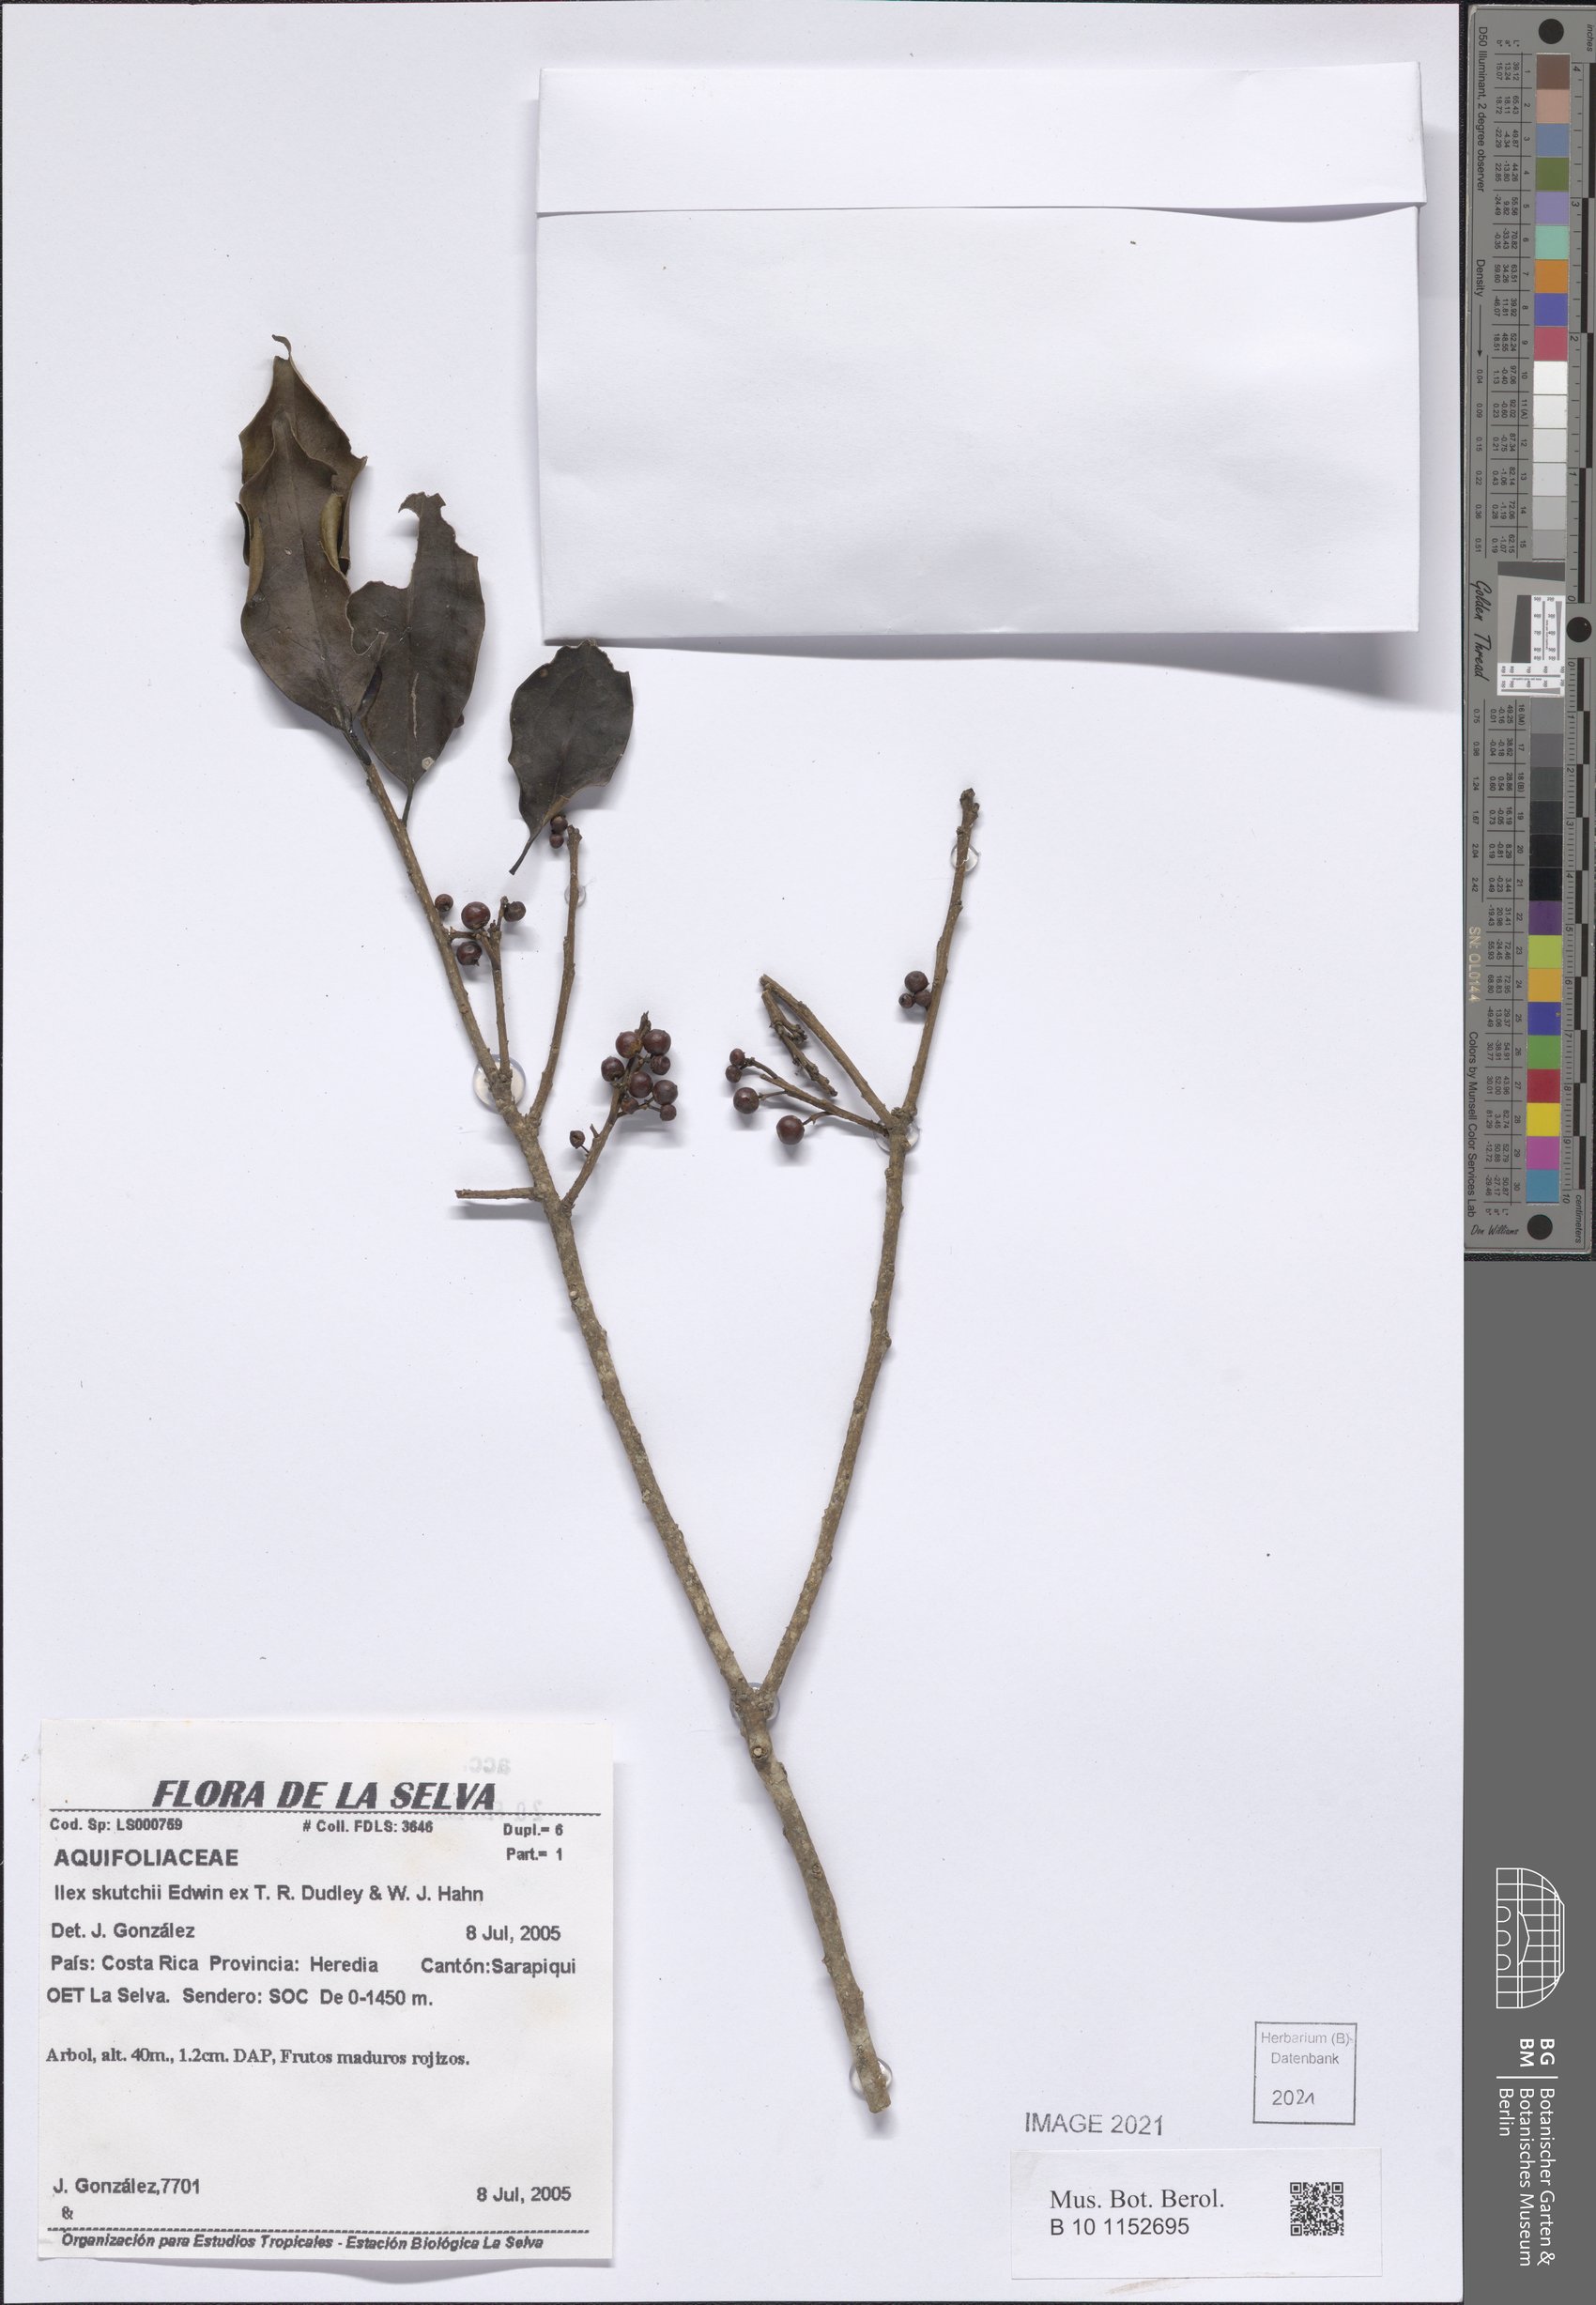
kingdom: Plantae
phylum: Tracheophyta
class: Magnoliopsida
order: Aquifoliales
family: Aquifoliaceae
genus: Ilex
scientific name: Ilex skutchii
